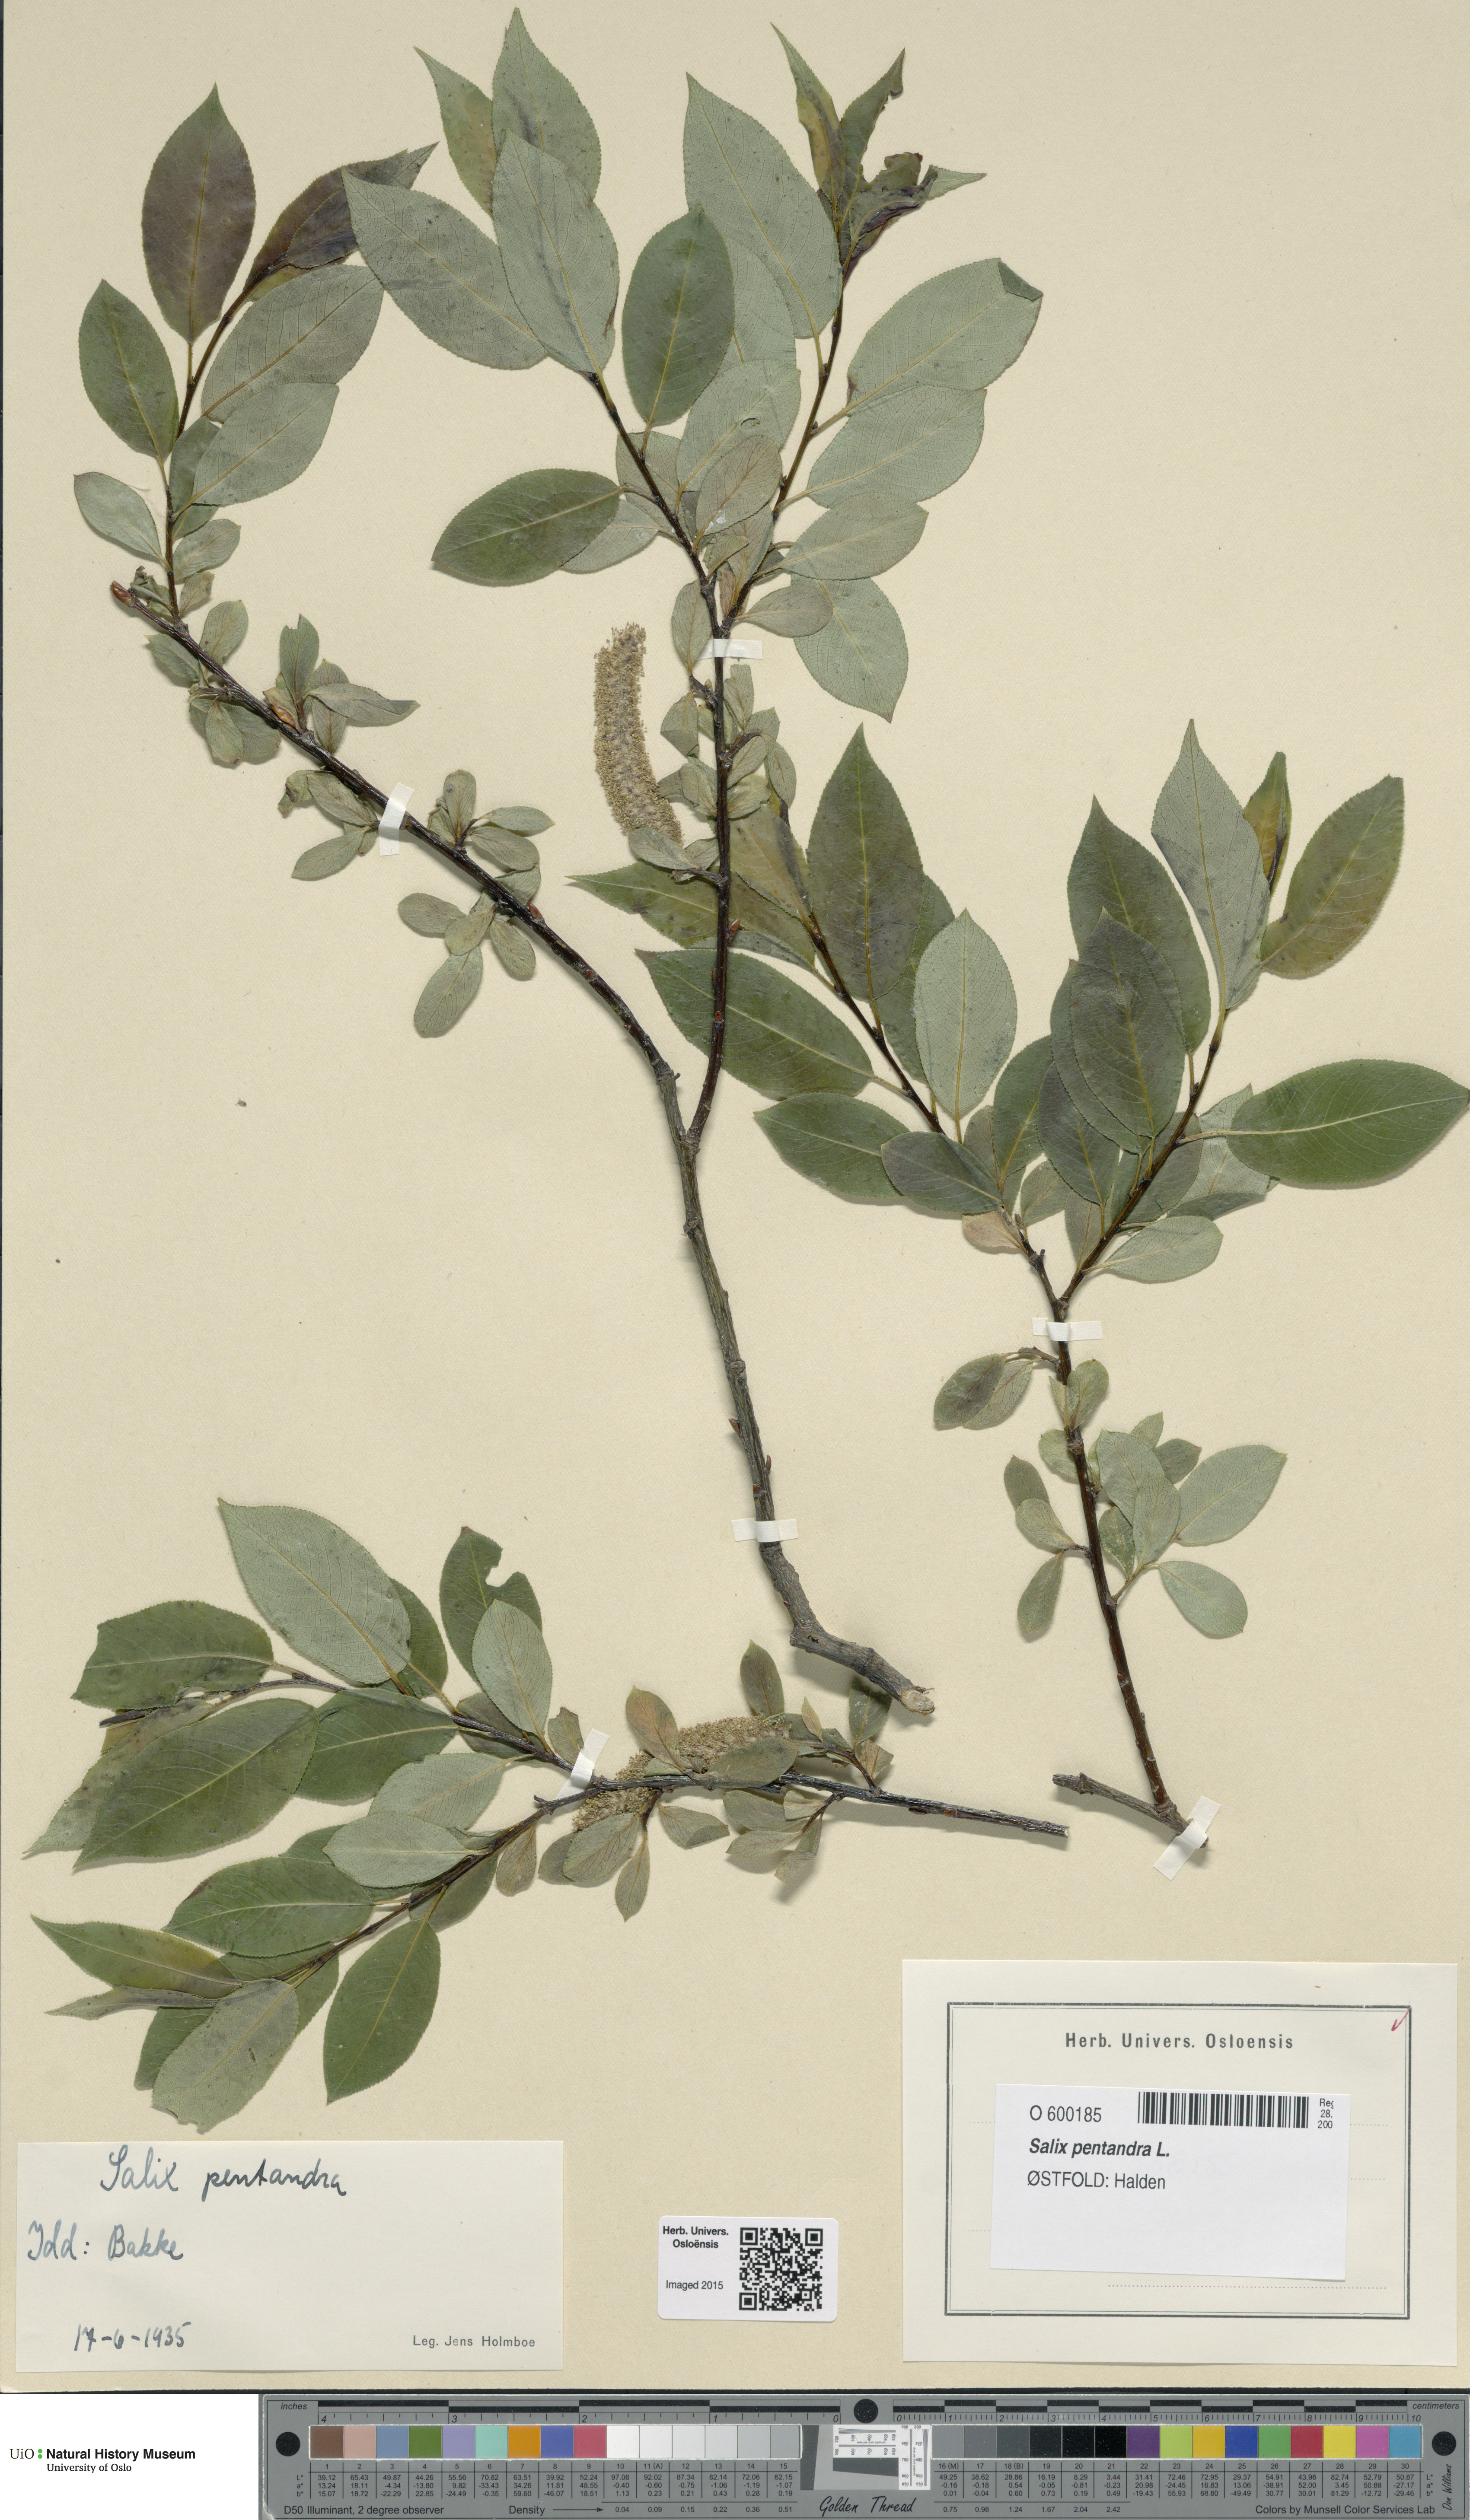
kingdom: Plantae
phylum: Tracheophyta
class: Magnoliopsida
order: Malpighiales
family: Salicaceae
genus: Salix
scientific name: Salix pentandra
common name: Bay willow
